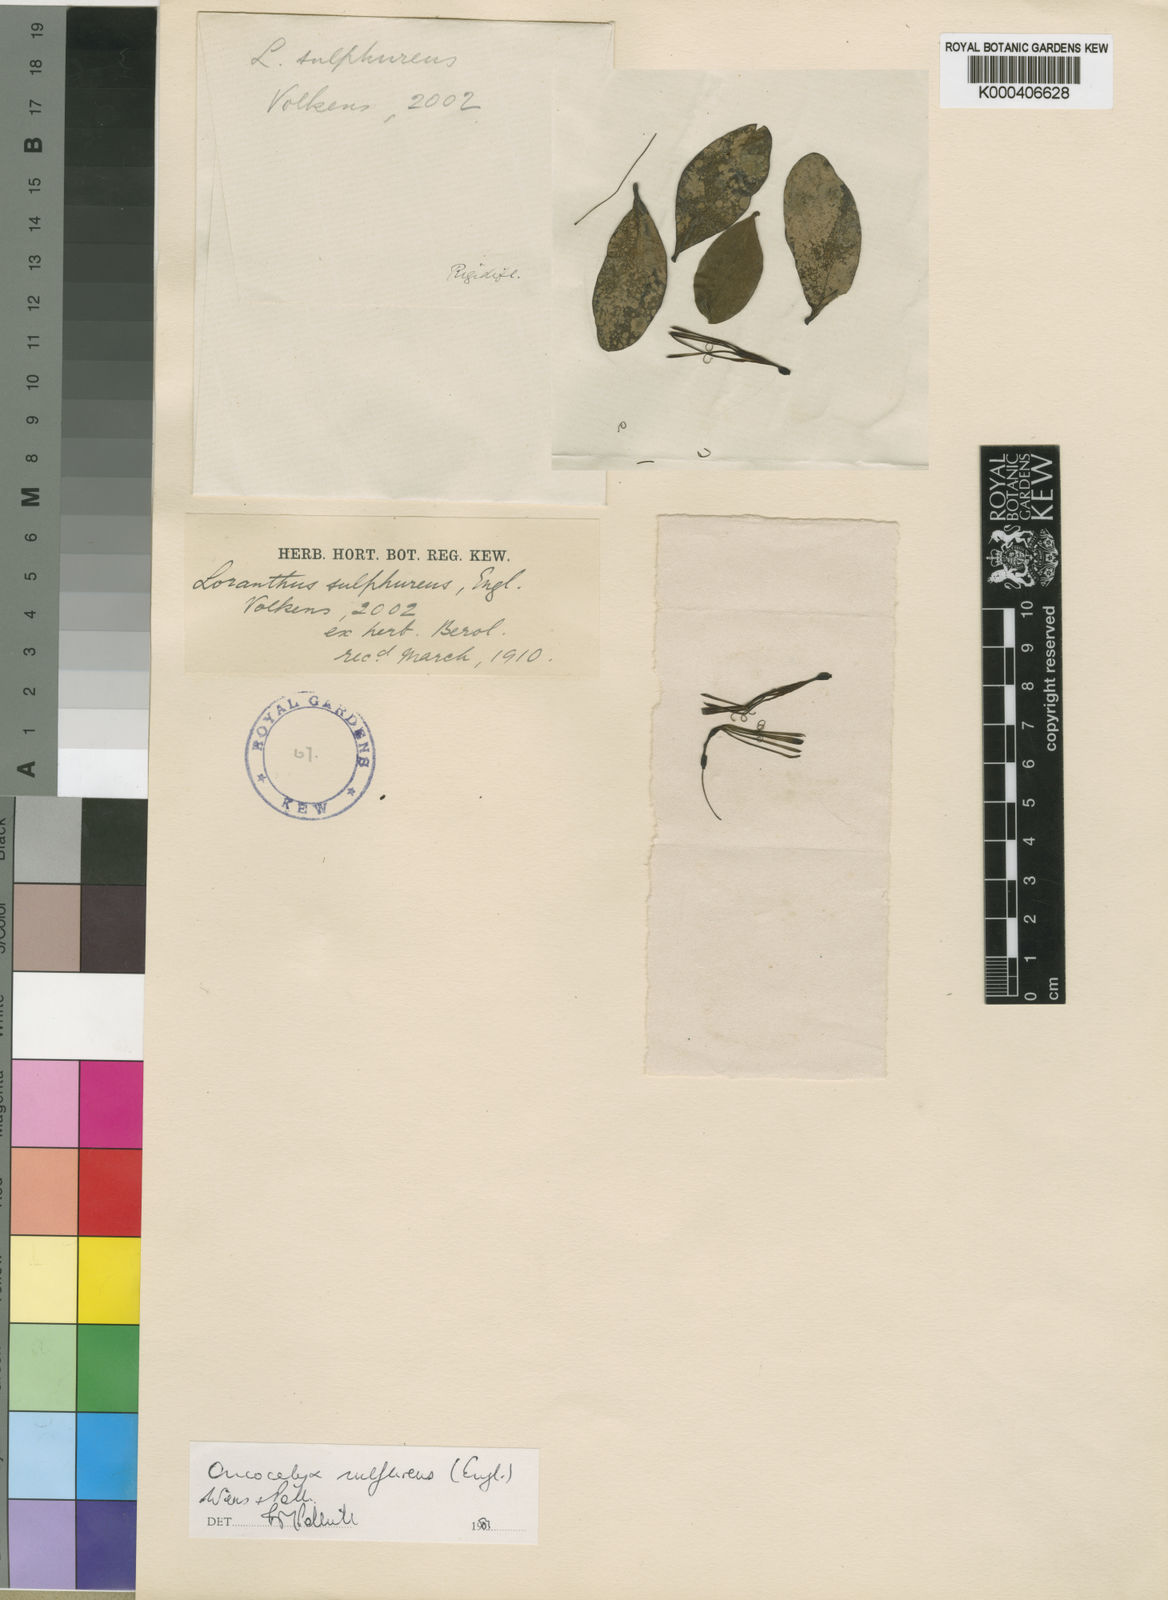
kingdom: Plantae
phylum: Tracheophyta
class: Magnoliopsida
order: Santalales
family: Loranthaceae
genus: Oncocalyx
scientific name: Oncocalyx sulfureus
